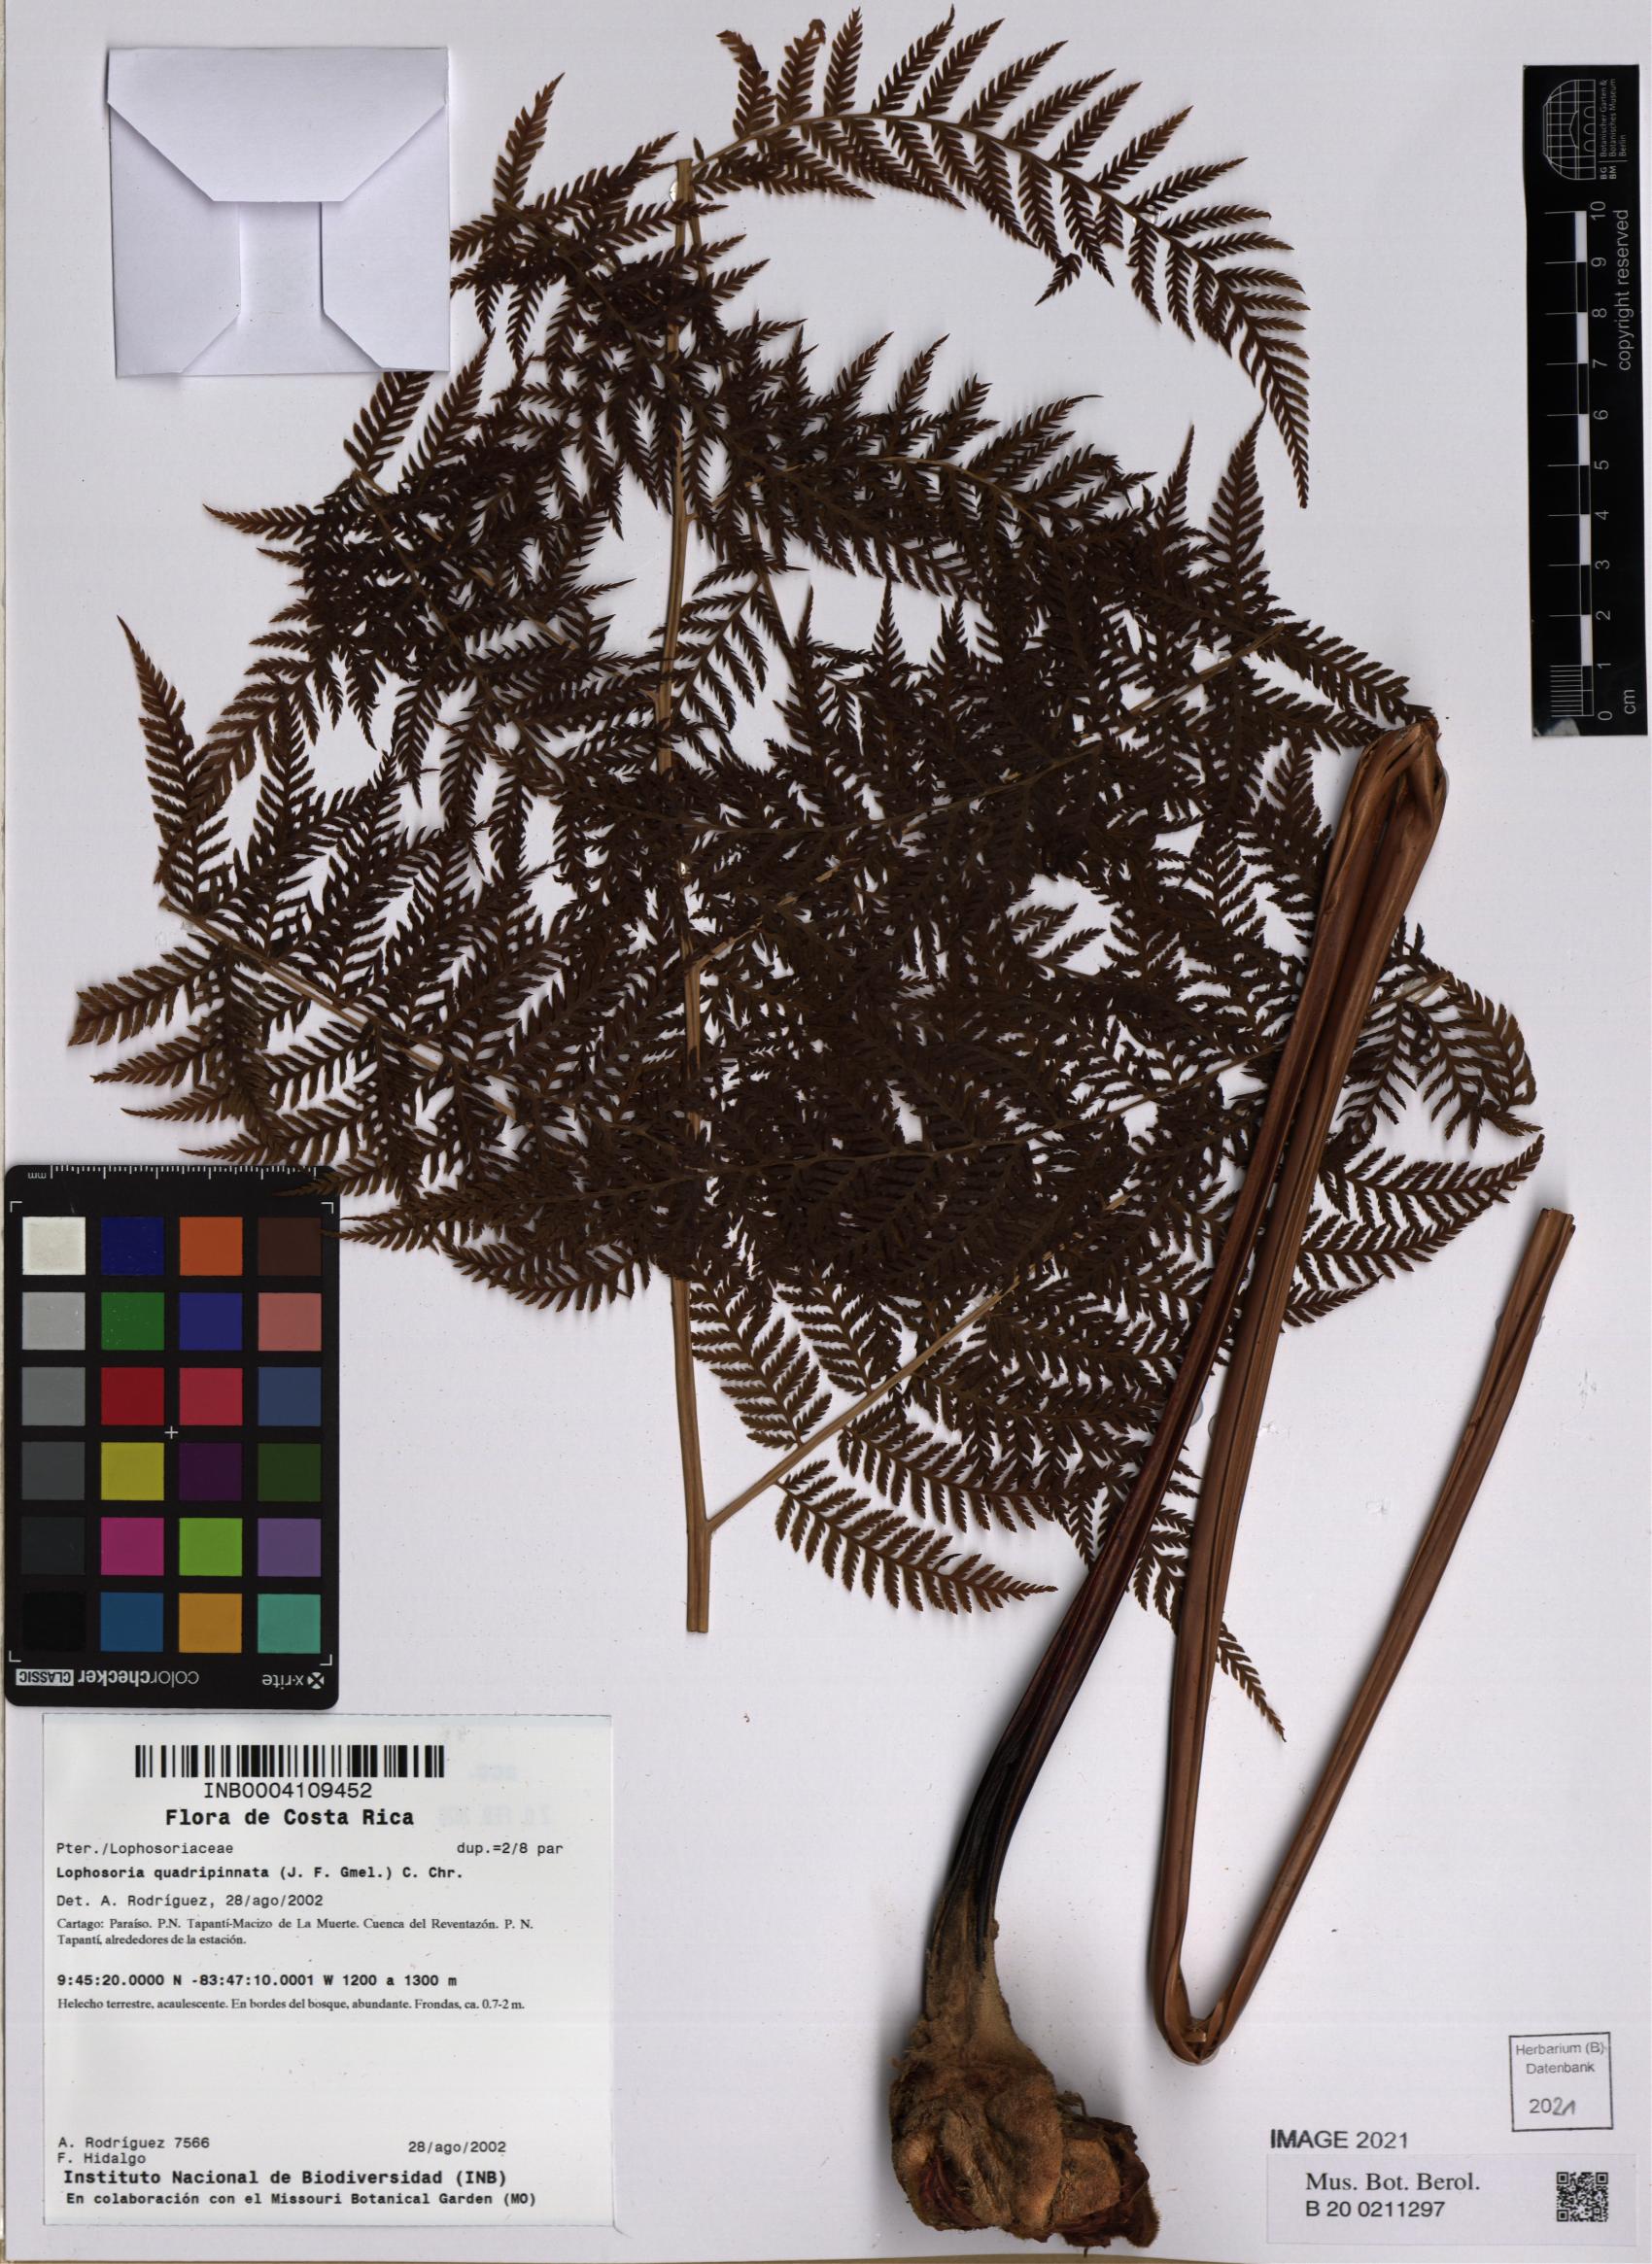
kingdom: Plantae
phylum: Tracheophyta
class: Polypodiopsida
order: Cyatheales
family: Dicksoniaceae
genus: Lophosoria
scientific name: Lophosoria quadripinnata
